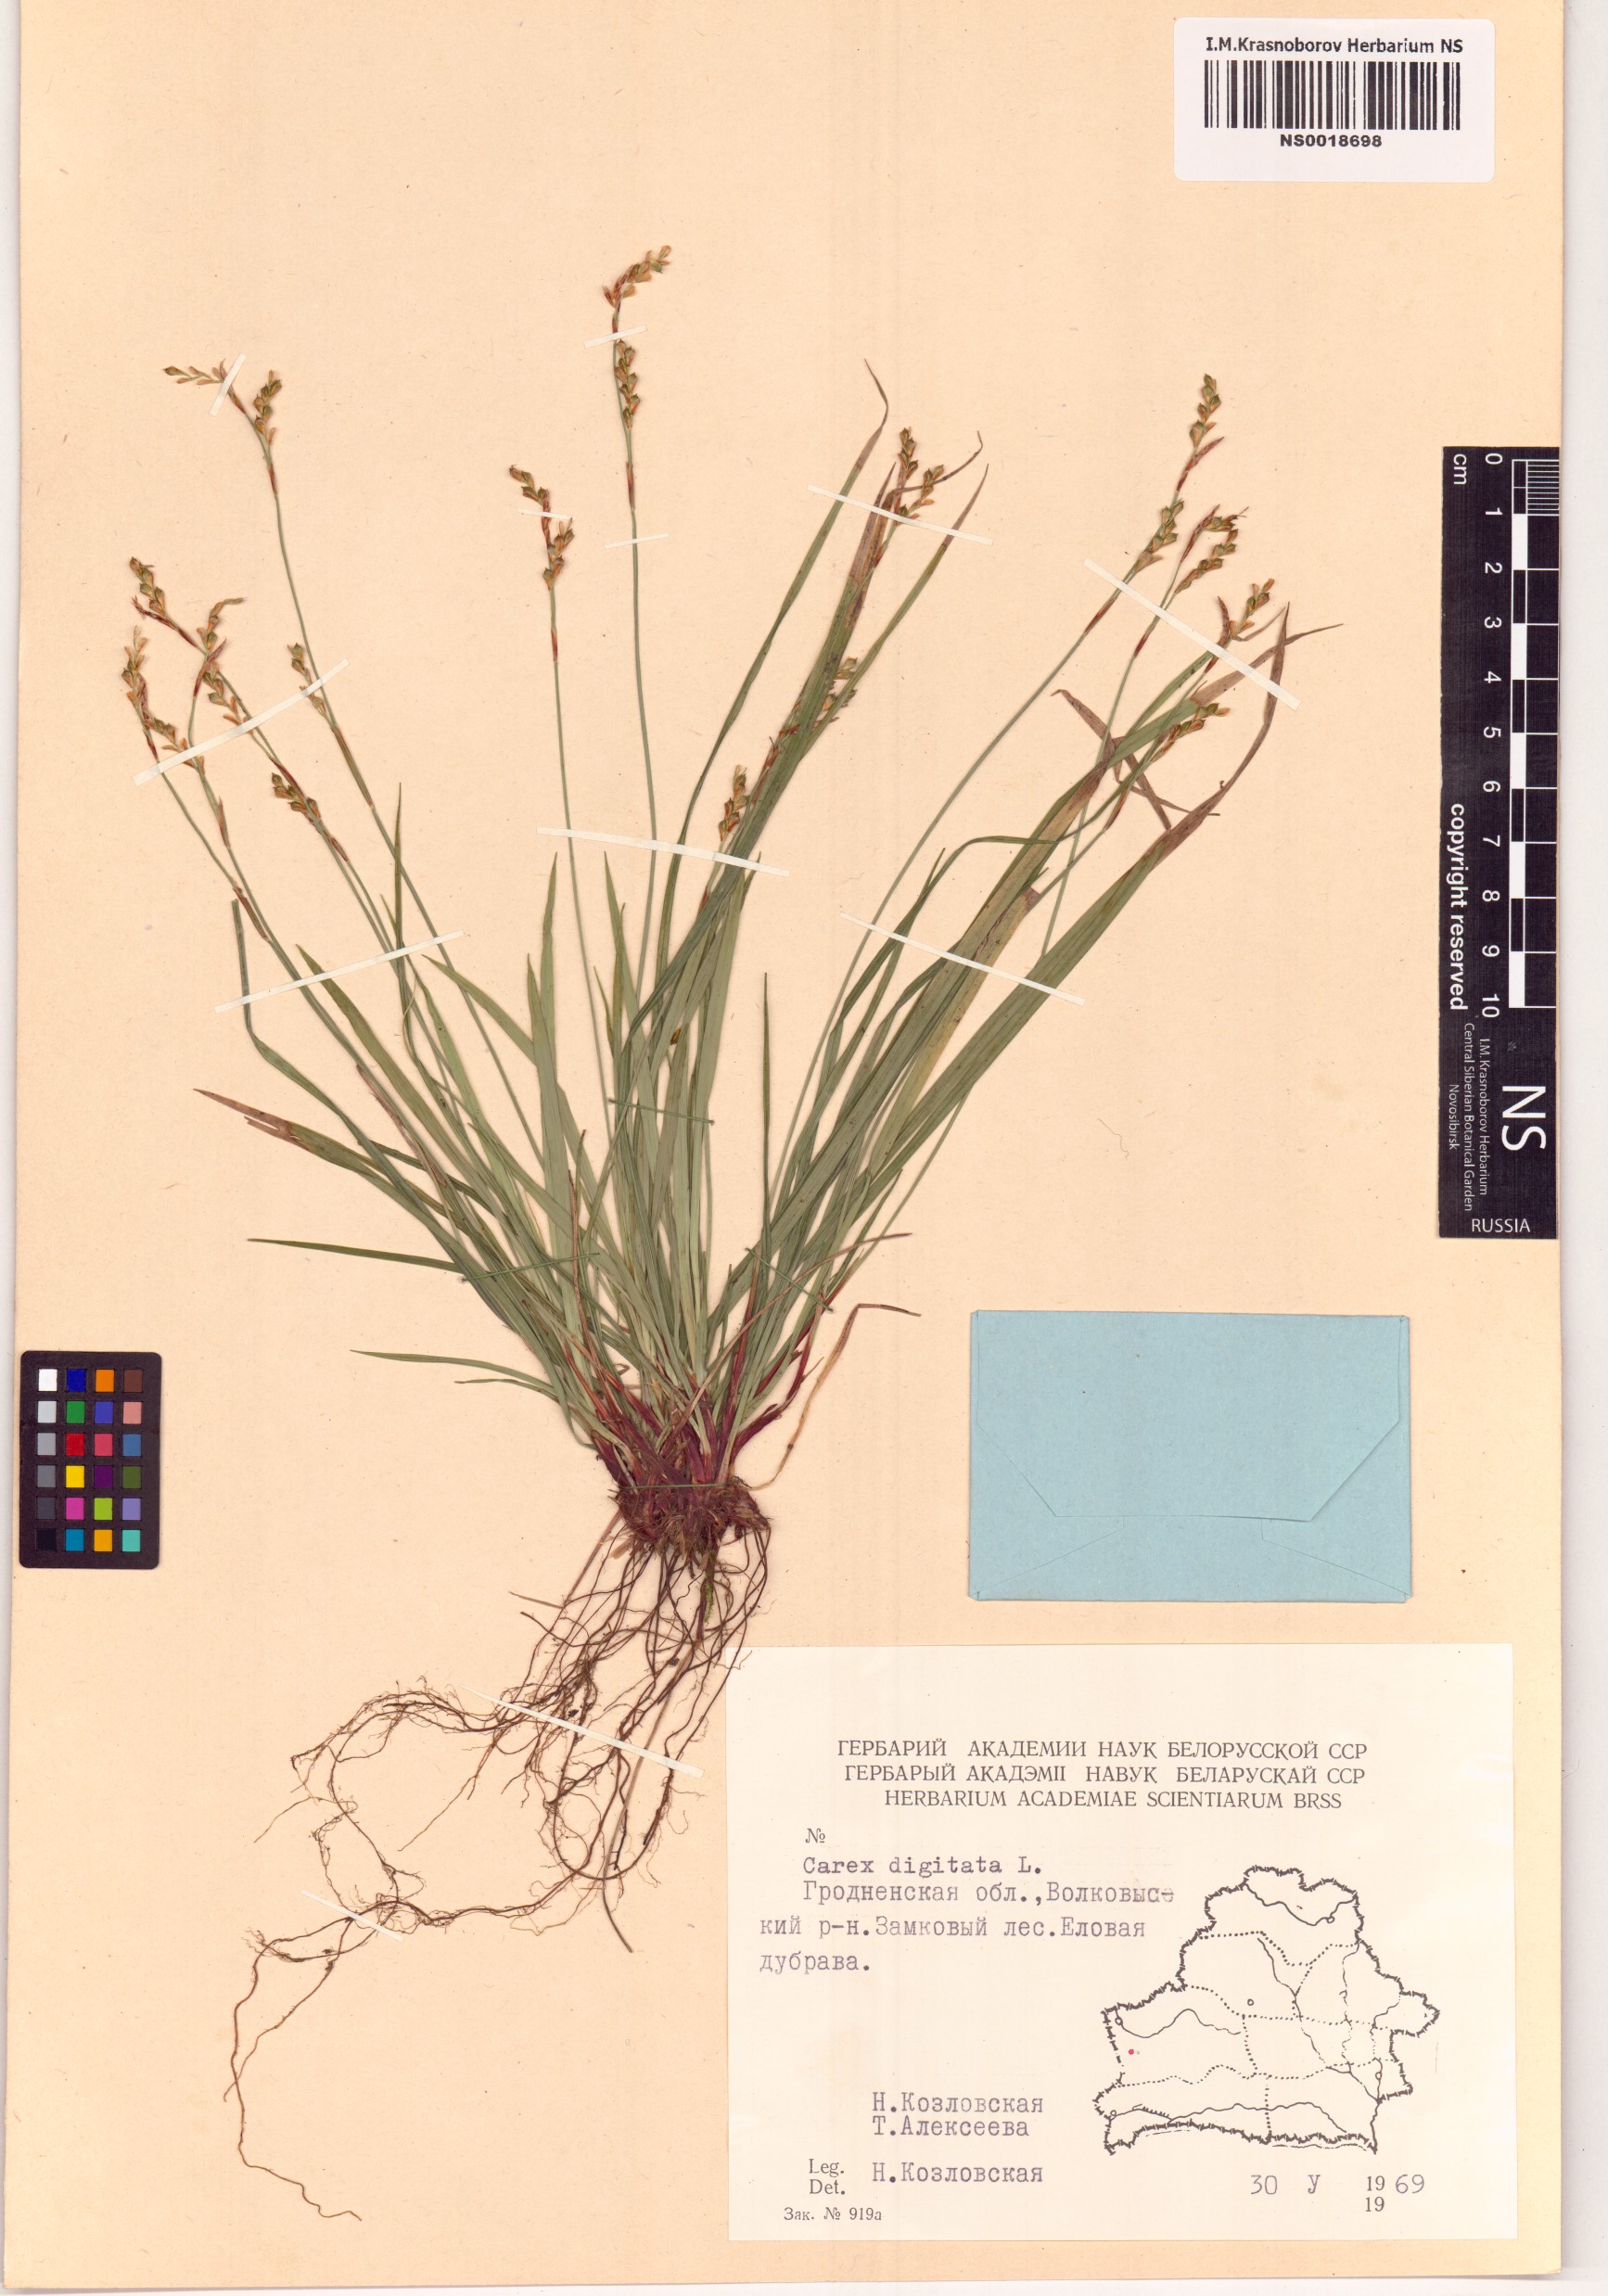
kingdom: Plantae
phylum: Tracheophyta
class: Liliopsida
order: Poales
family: Cyperaceae
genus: Carex
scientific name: Carex digitata
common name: Fingered sedge
